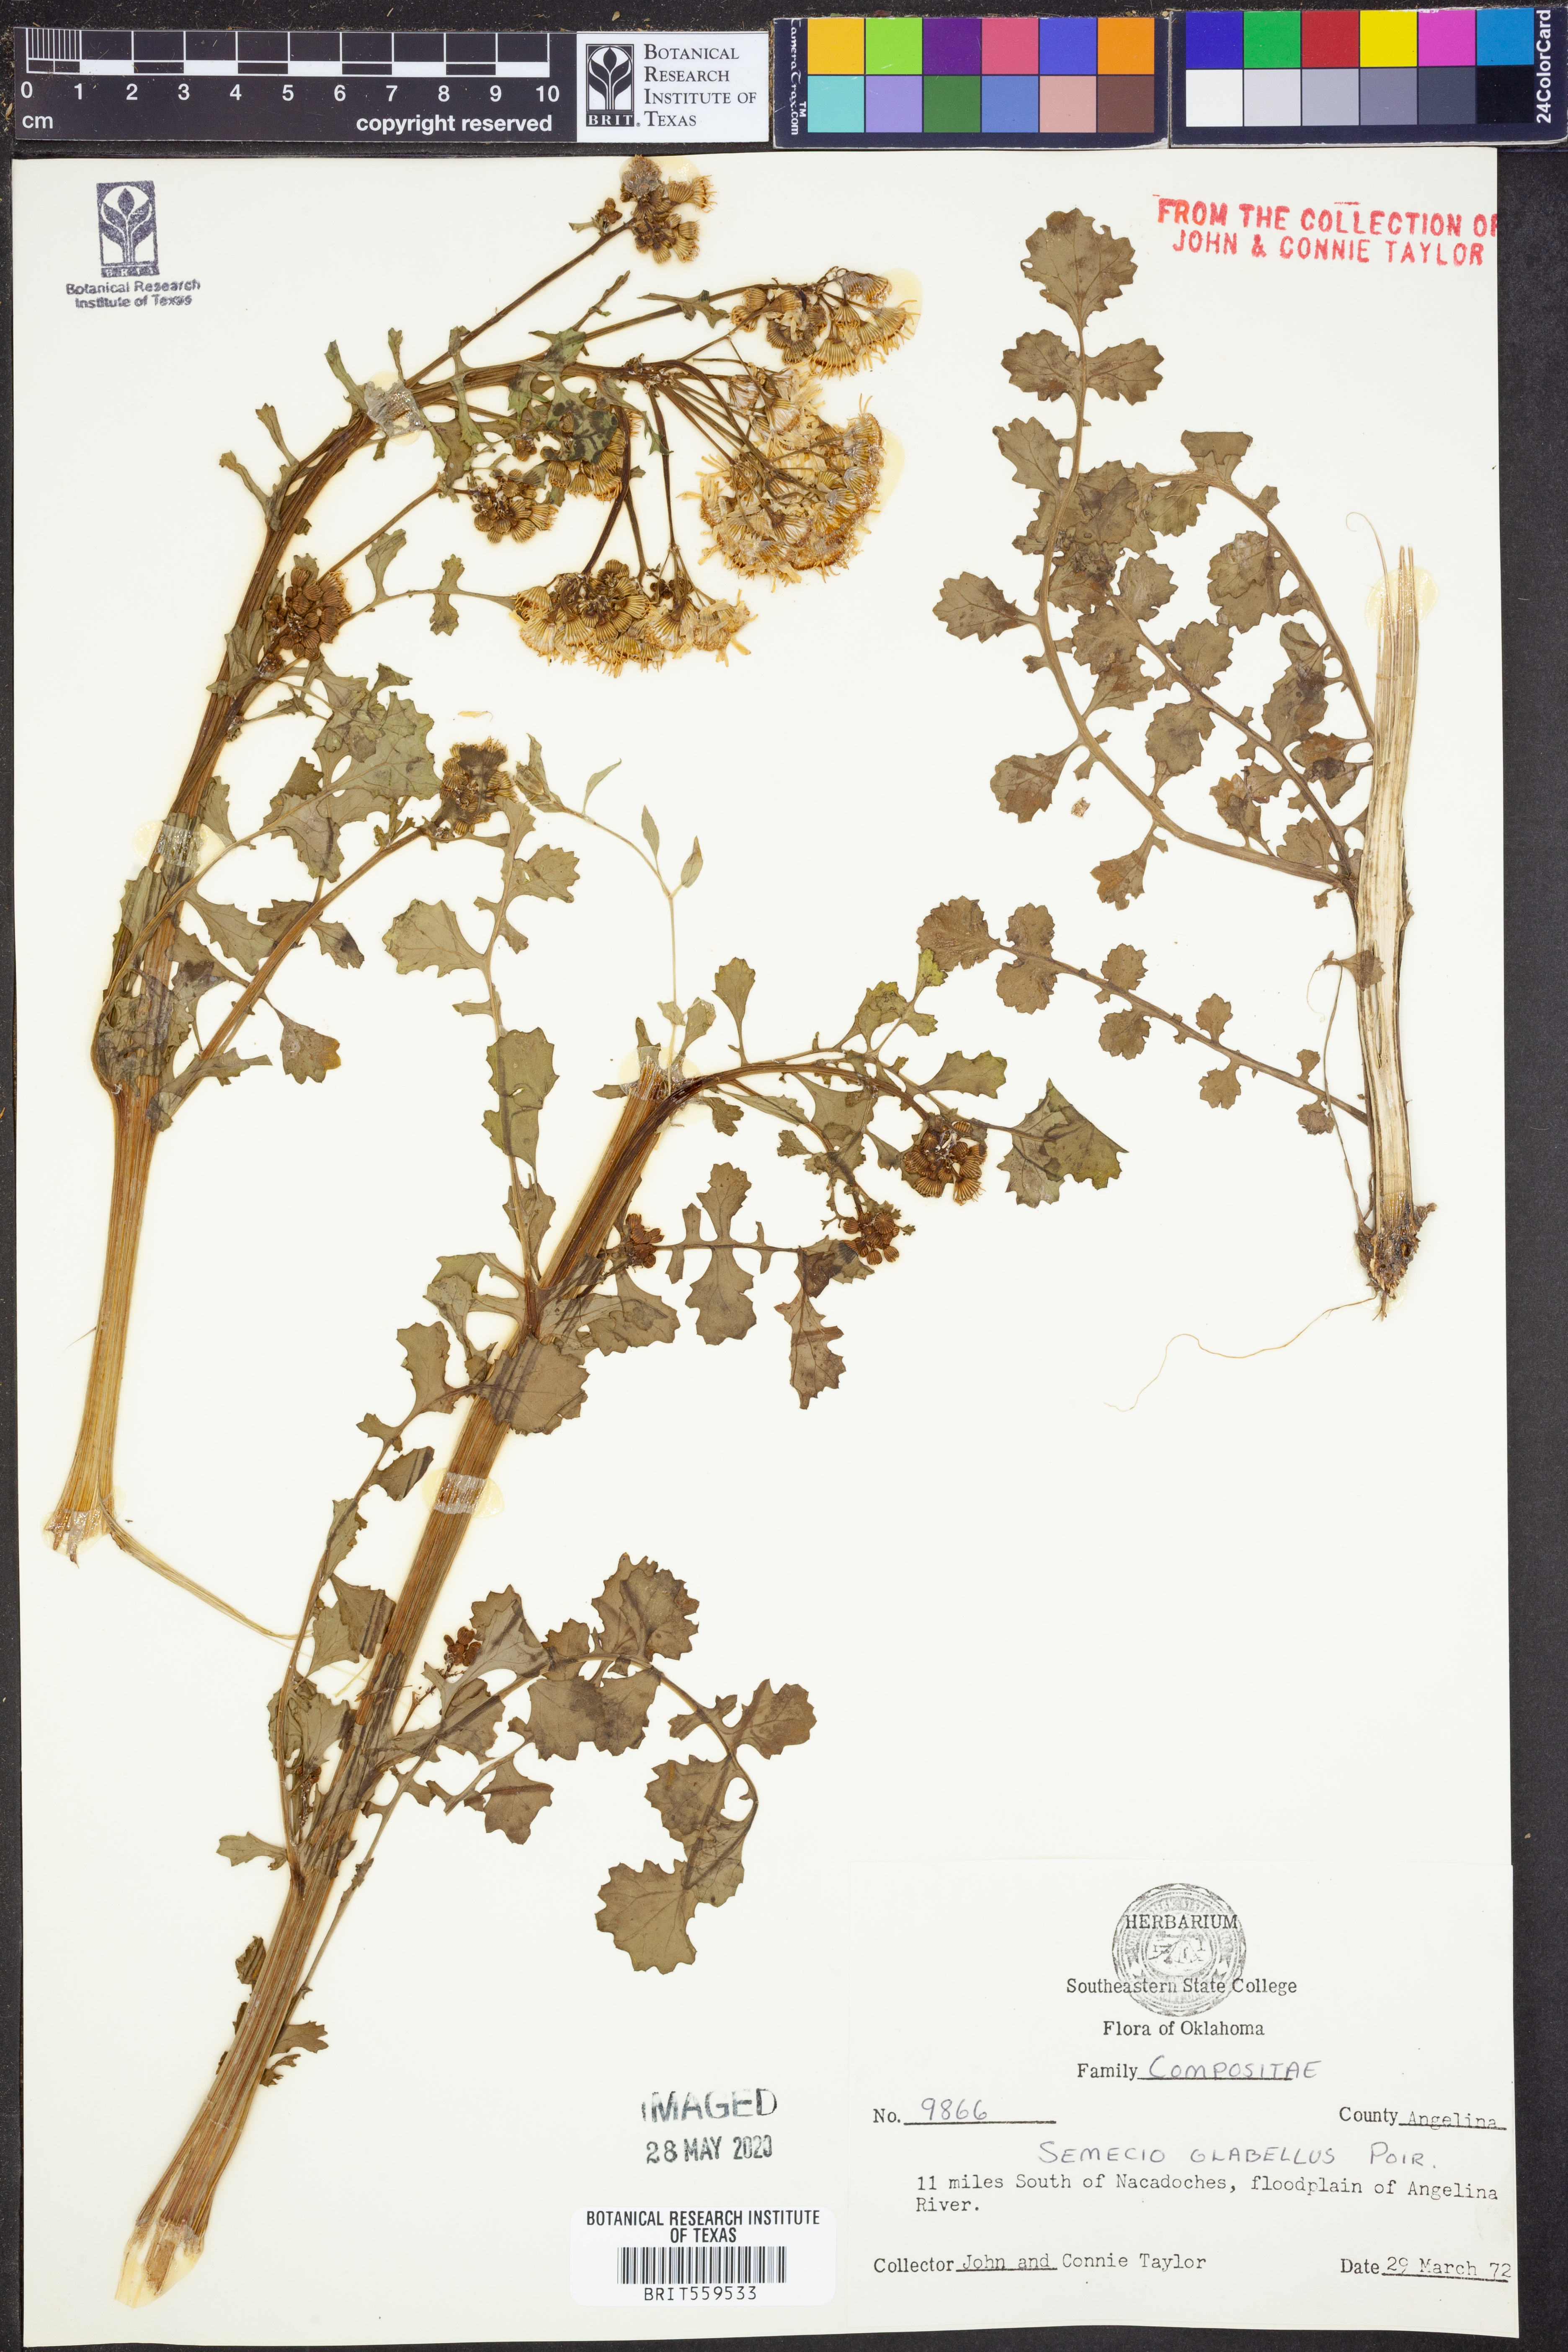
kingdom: Plantae
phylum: Tracheophyta
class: Magnoliopsida
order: Asterales
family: Asteraceae
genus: Tephroseris
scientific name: Tephroseris praticola
